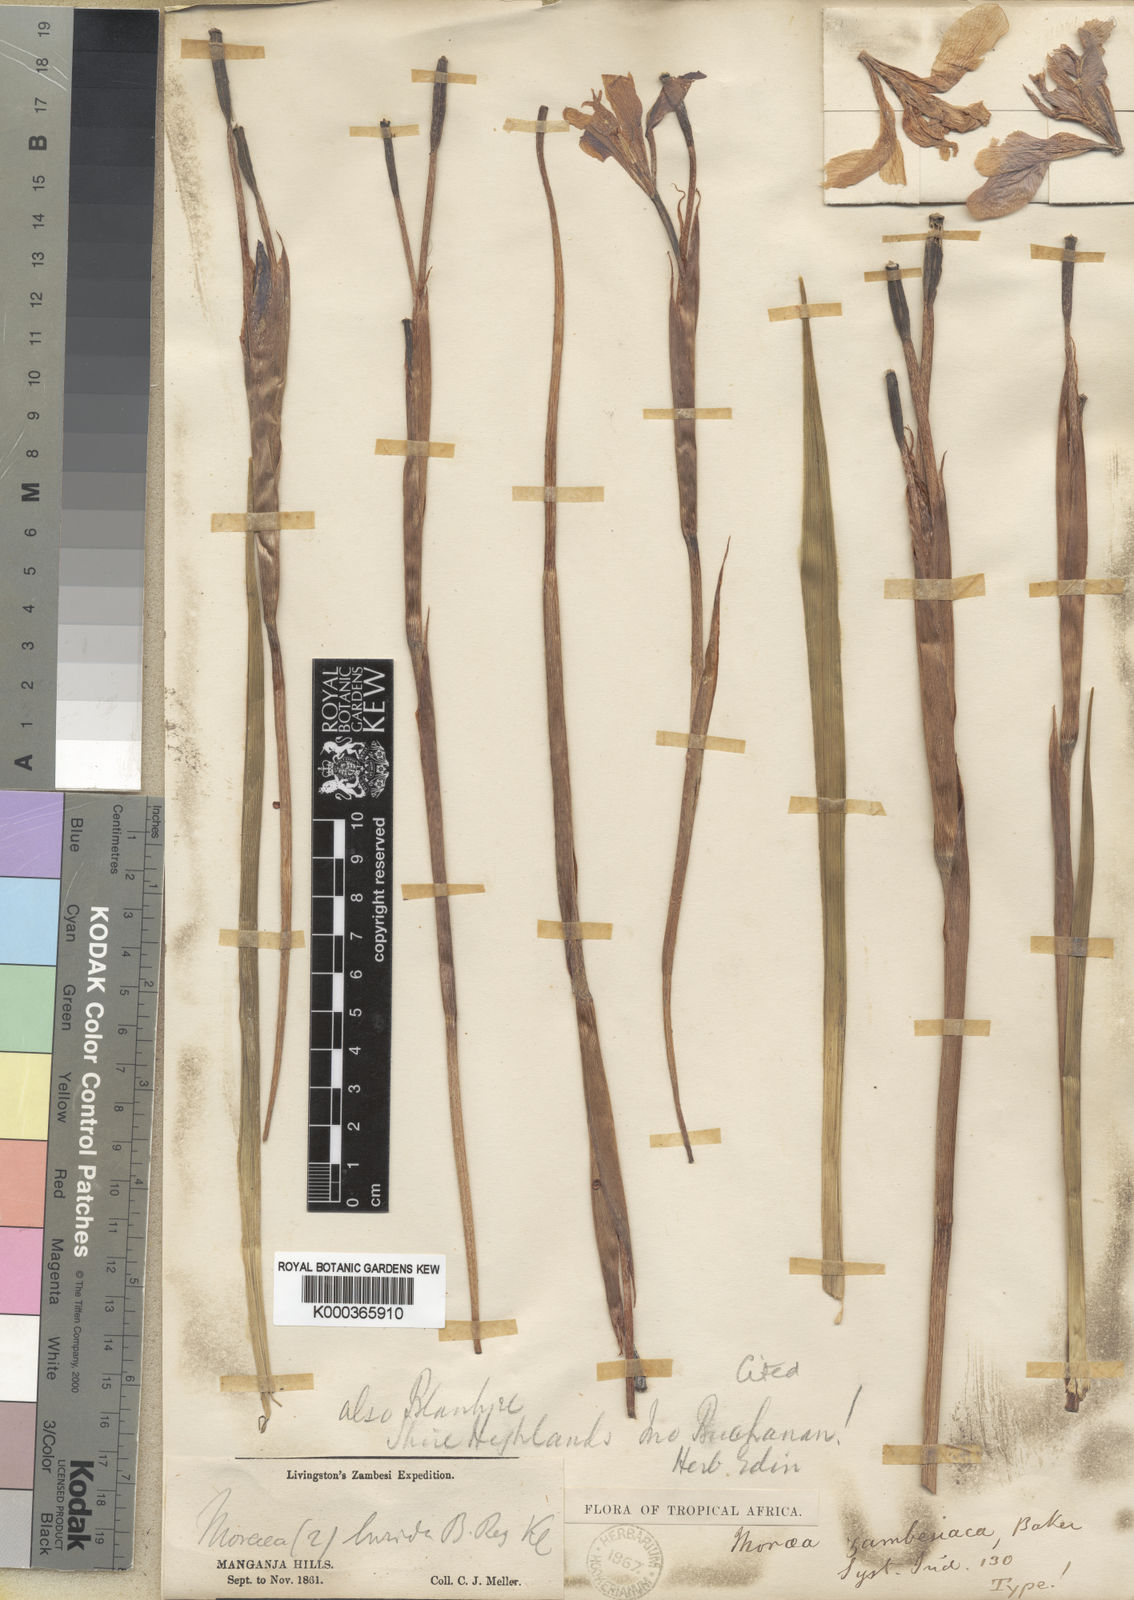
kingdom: Plantae
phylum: Tracheophyta
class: Liliopsida
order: Asparagales
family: Iridaceae
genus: Moraea
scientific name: Moraea schimperi
